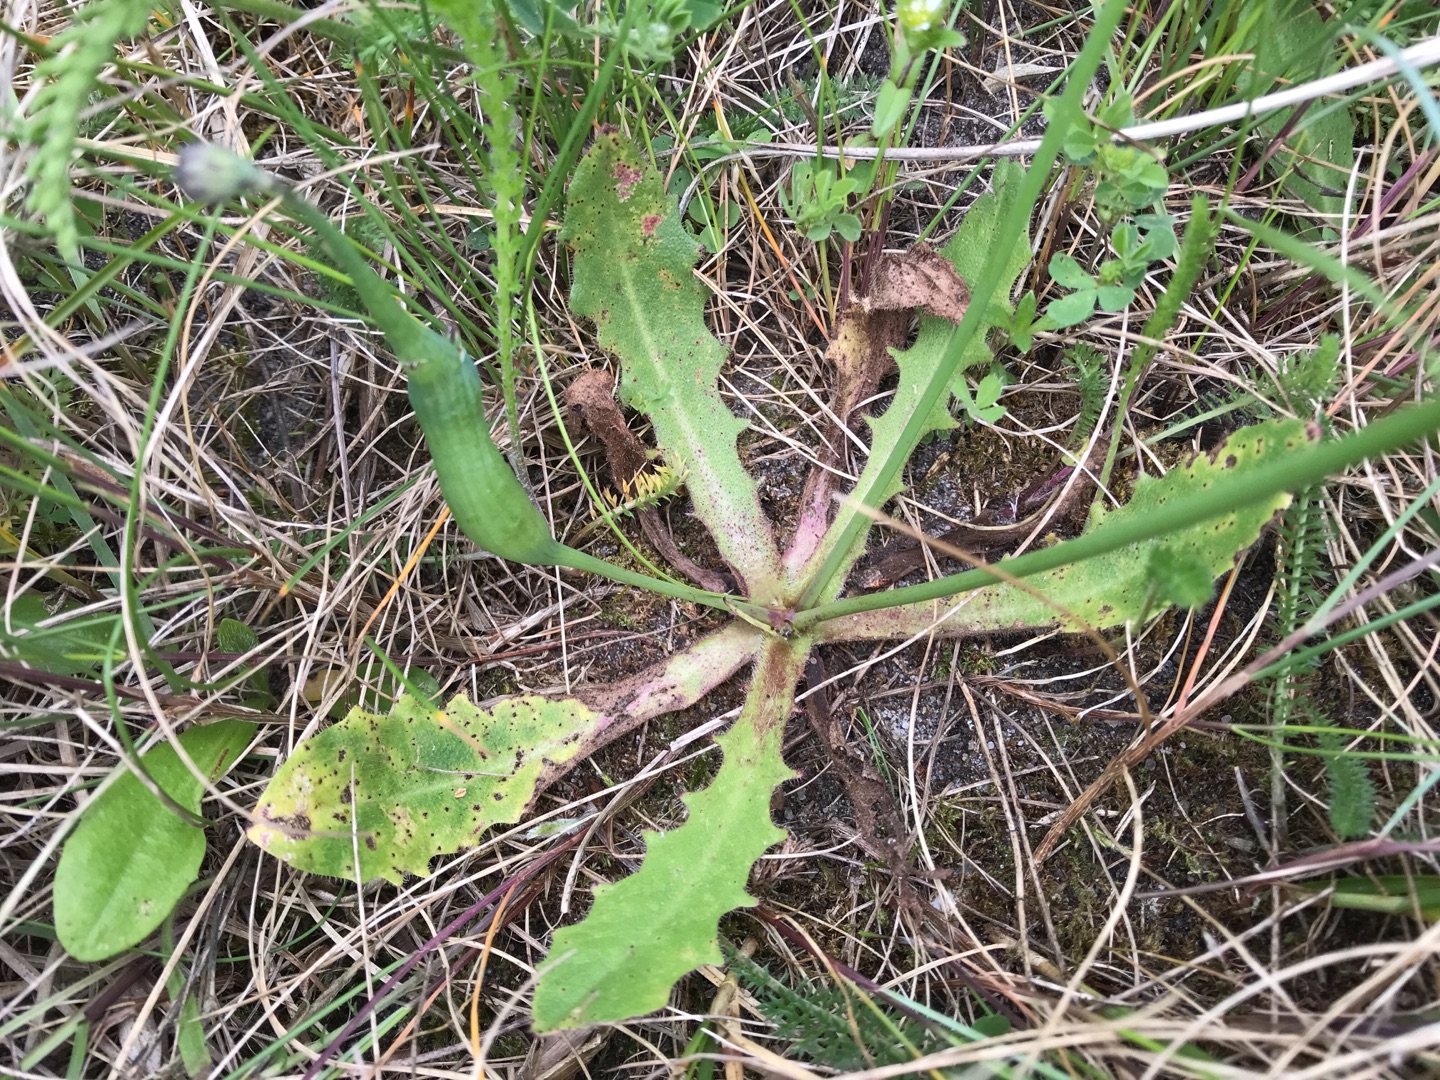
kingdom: Animalia
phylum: Arthropoda
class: Insecta
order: Hymenoptera
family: Cynipidae
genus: Phanacis
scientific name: Phanacis hypochoeridis
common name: Kongepengalhveps
